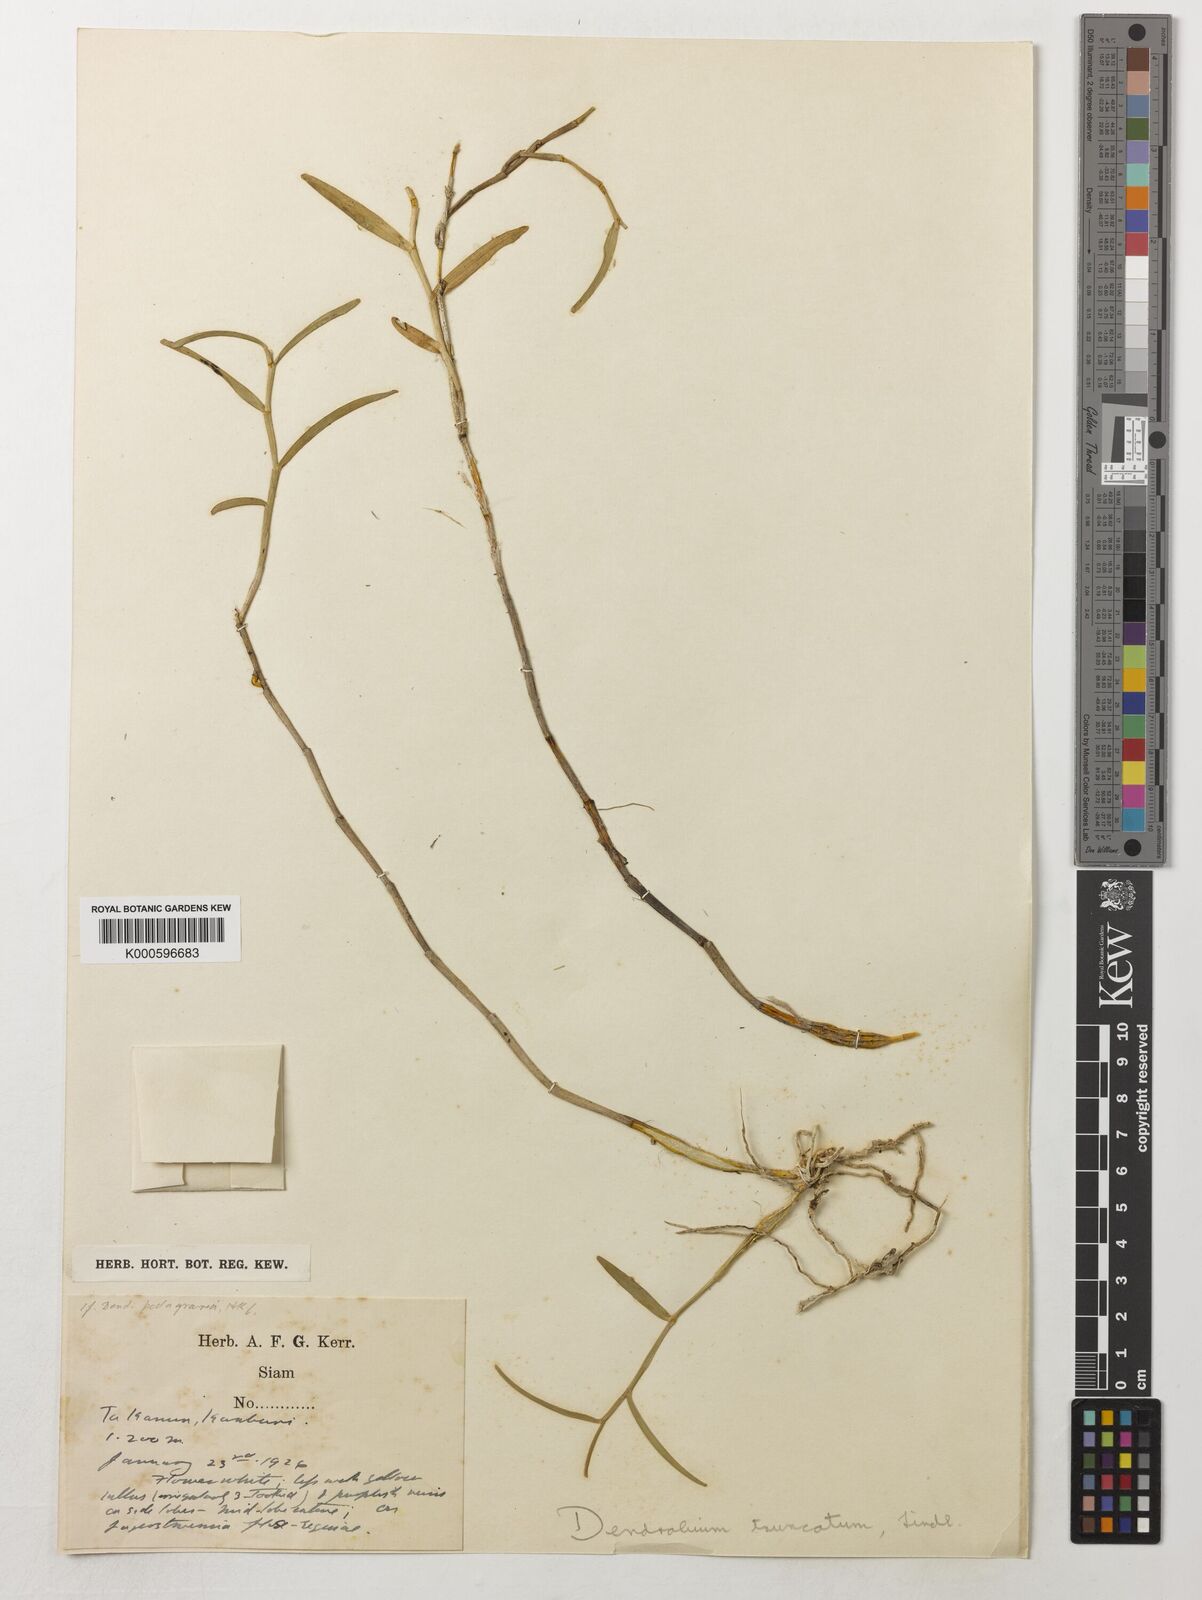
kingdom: Plantae
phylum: Tracheophyta
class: Liliopsida
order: Asparagales
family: Orchidaceae
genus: Dendrobium
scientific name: Dendrobium truncatum
